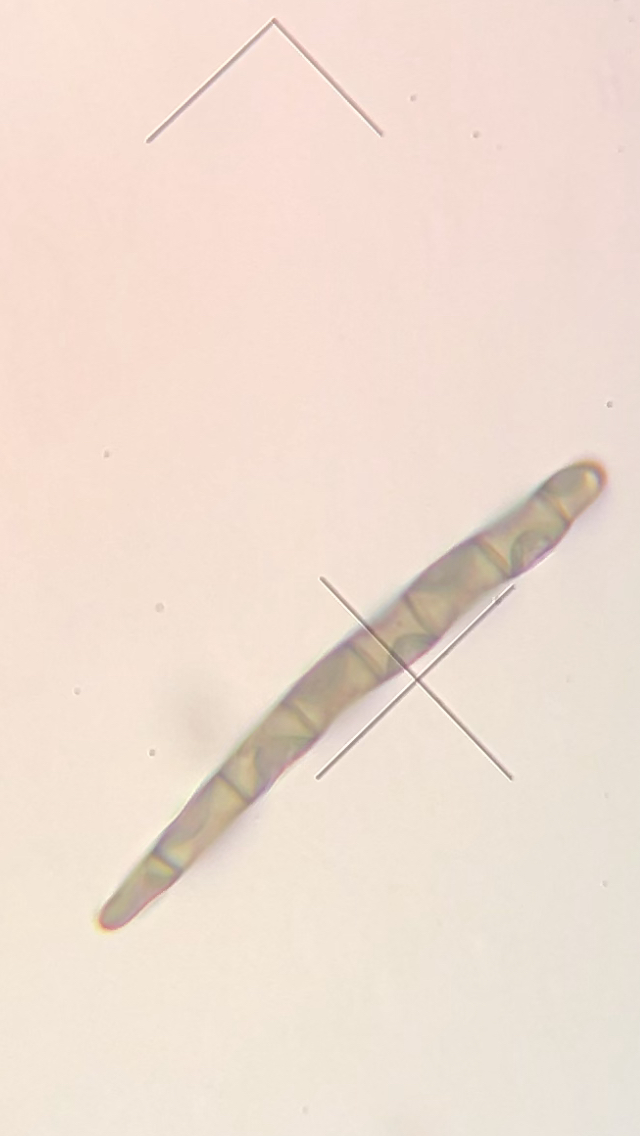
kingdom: Fungi
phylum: Ascomycota
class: Geoglossomycetes
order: Geoglossales
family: Geoglossaceae
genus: Geoglossum
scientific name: Geoglossum cookeianum
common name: bred jordtunge
